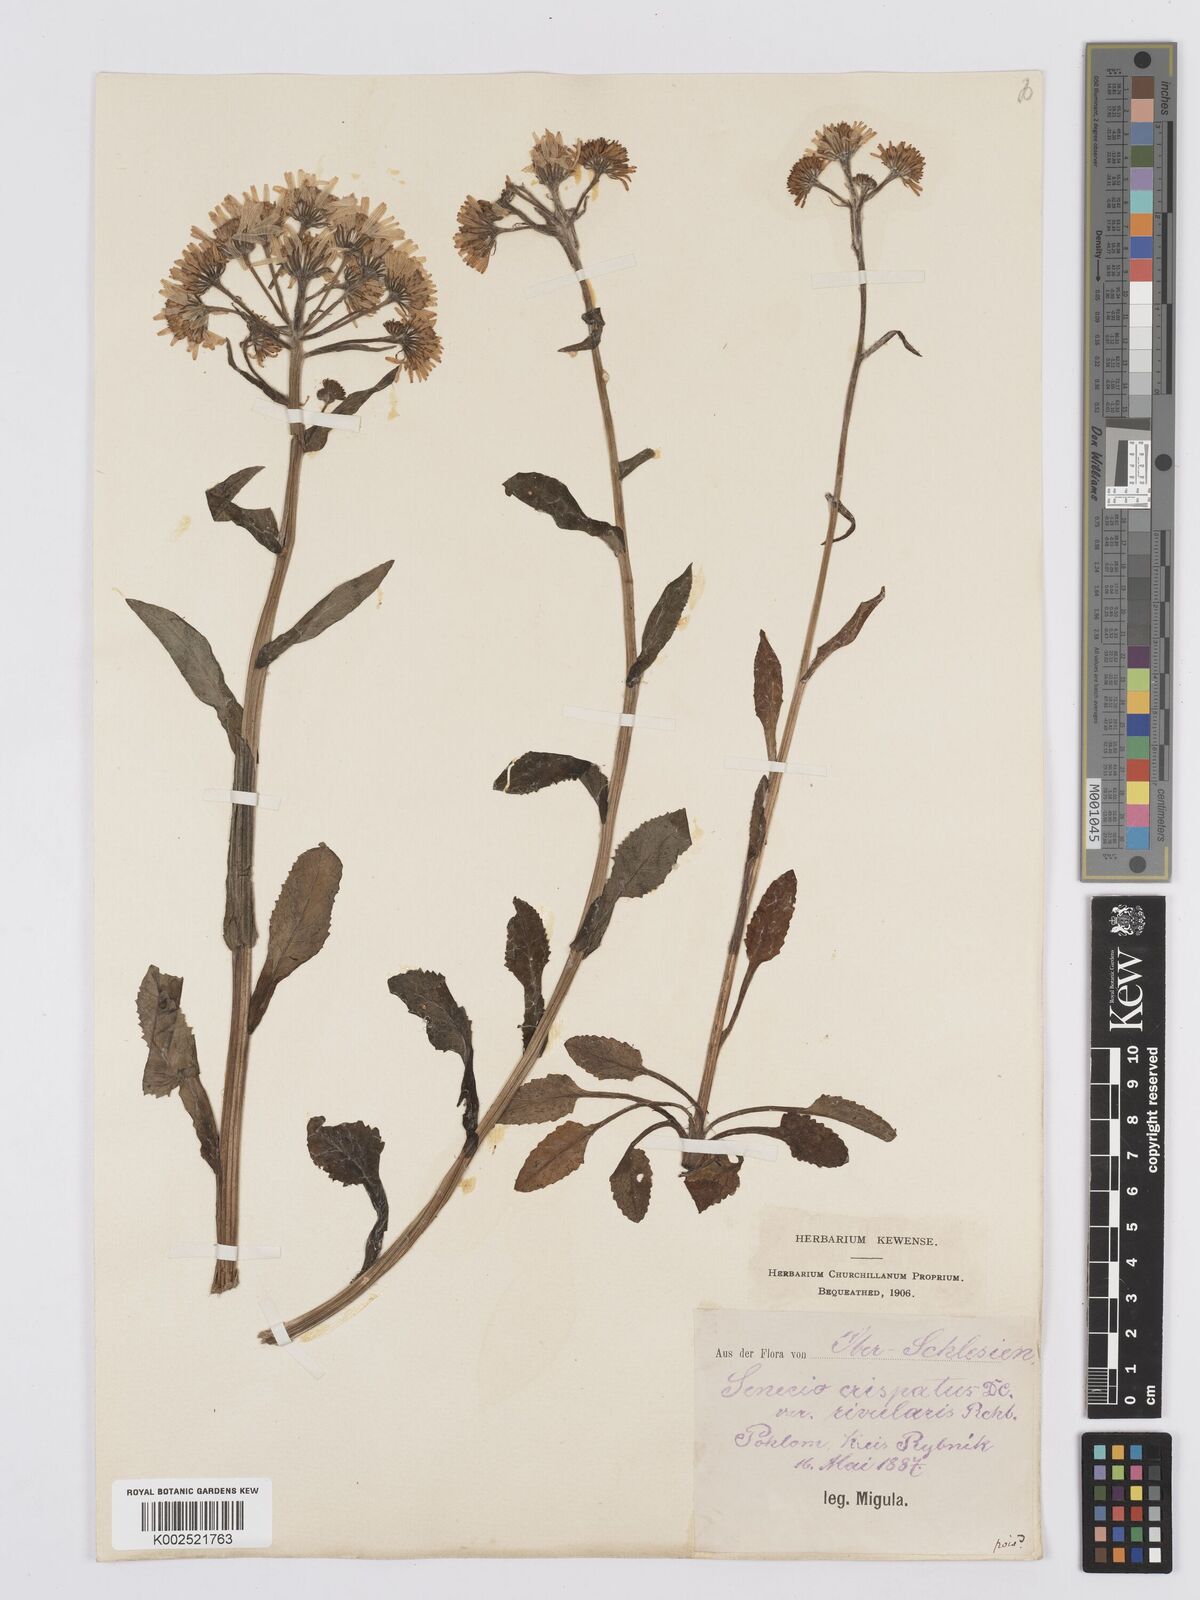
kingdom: Plantae
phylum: Tracheophyta
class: Magnoliopsida
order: Asterales
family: Asteraceae
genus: Tephroseris
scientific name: Tephroseris
